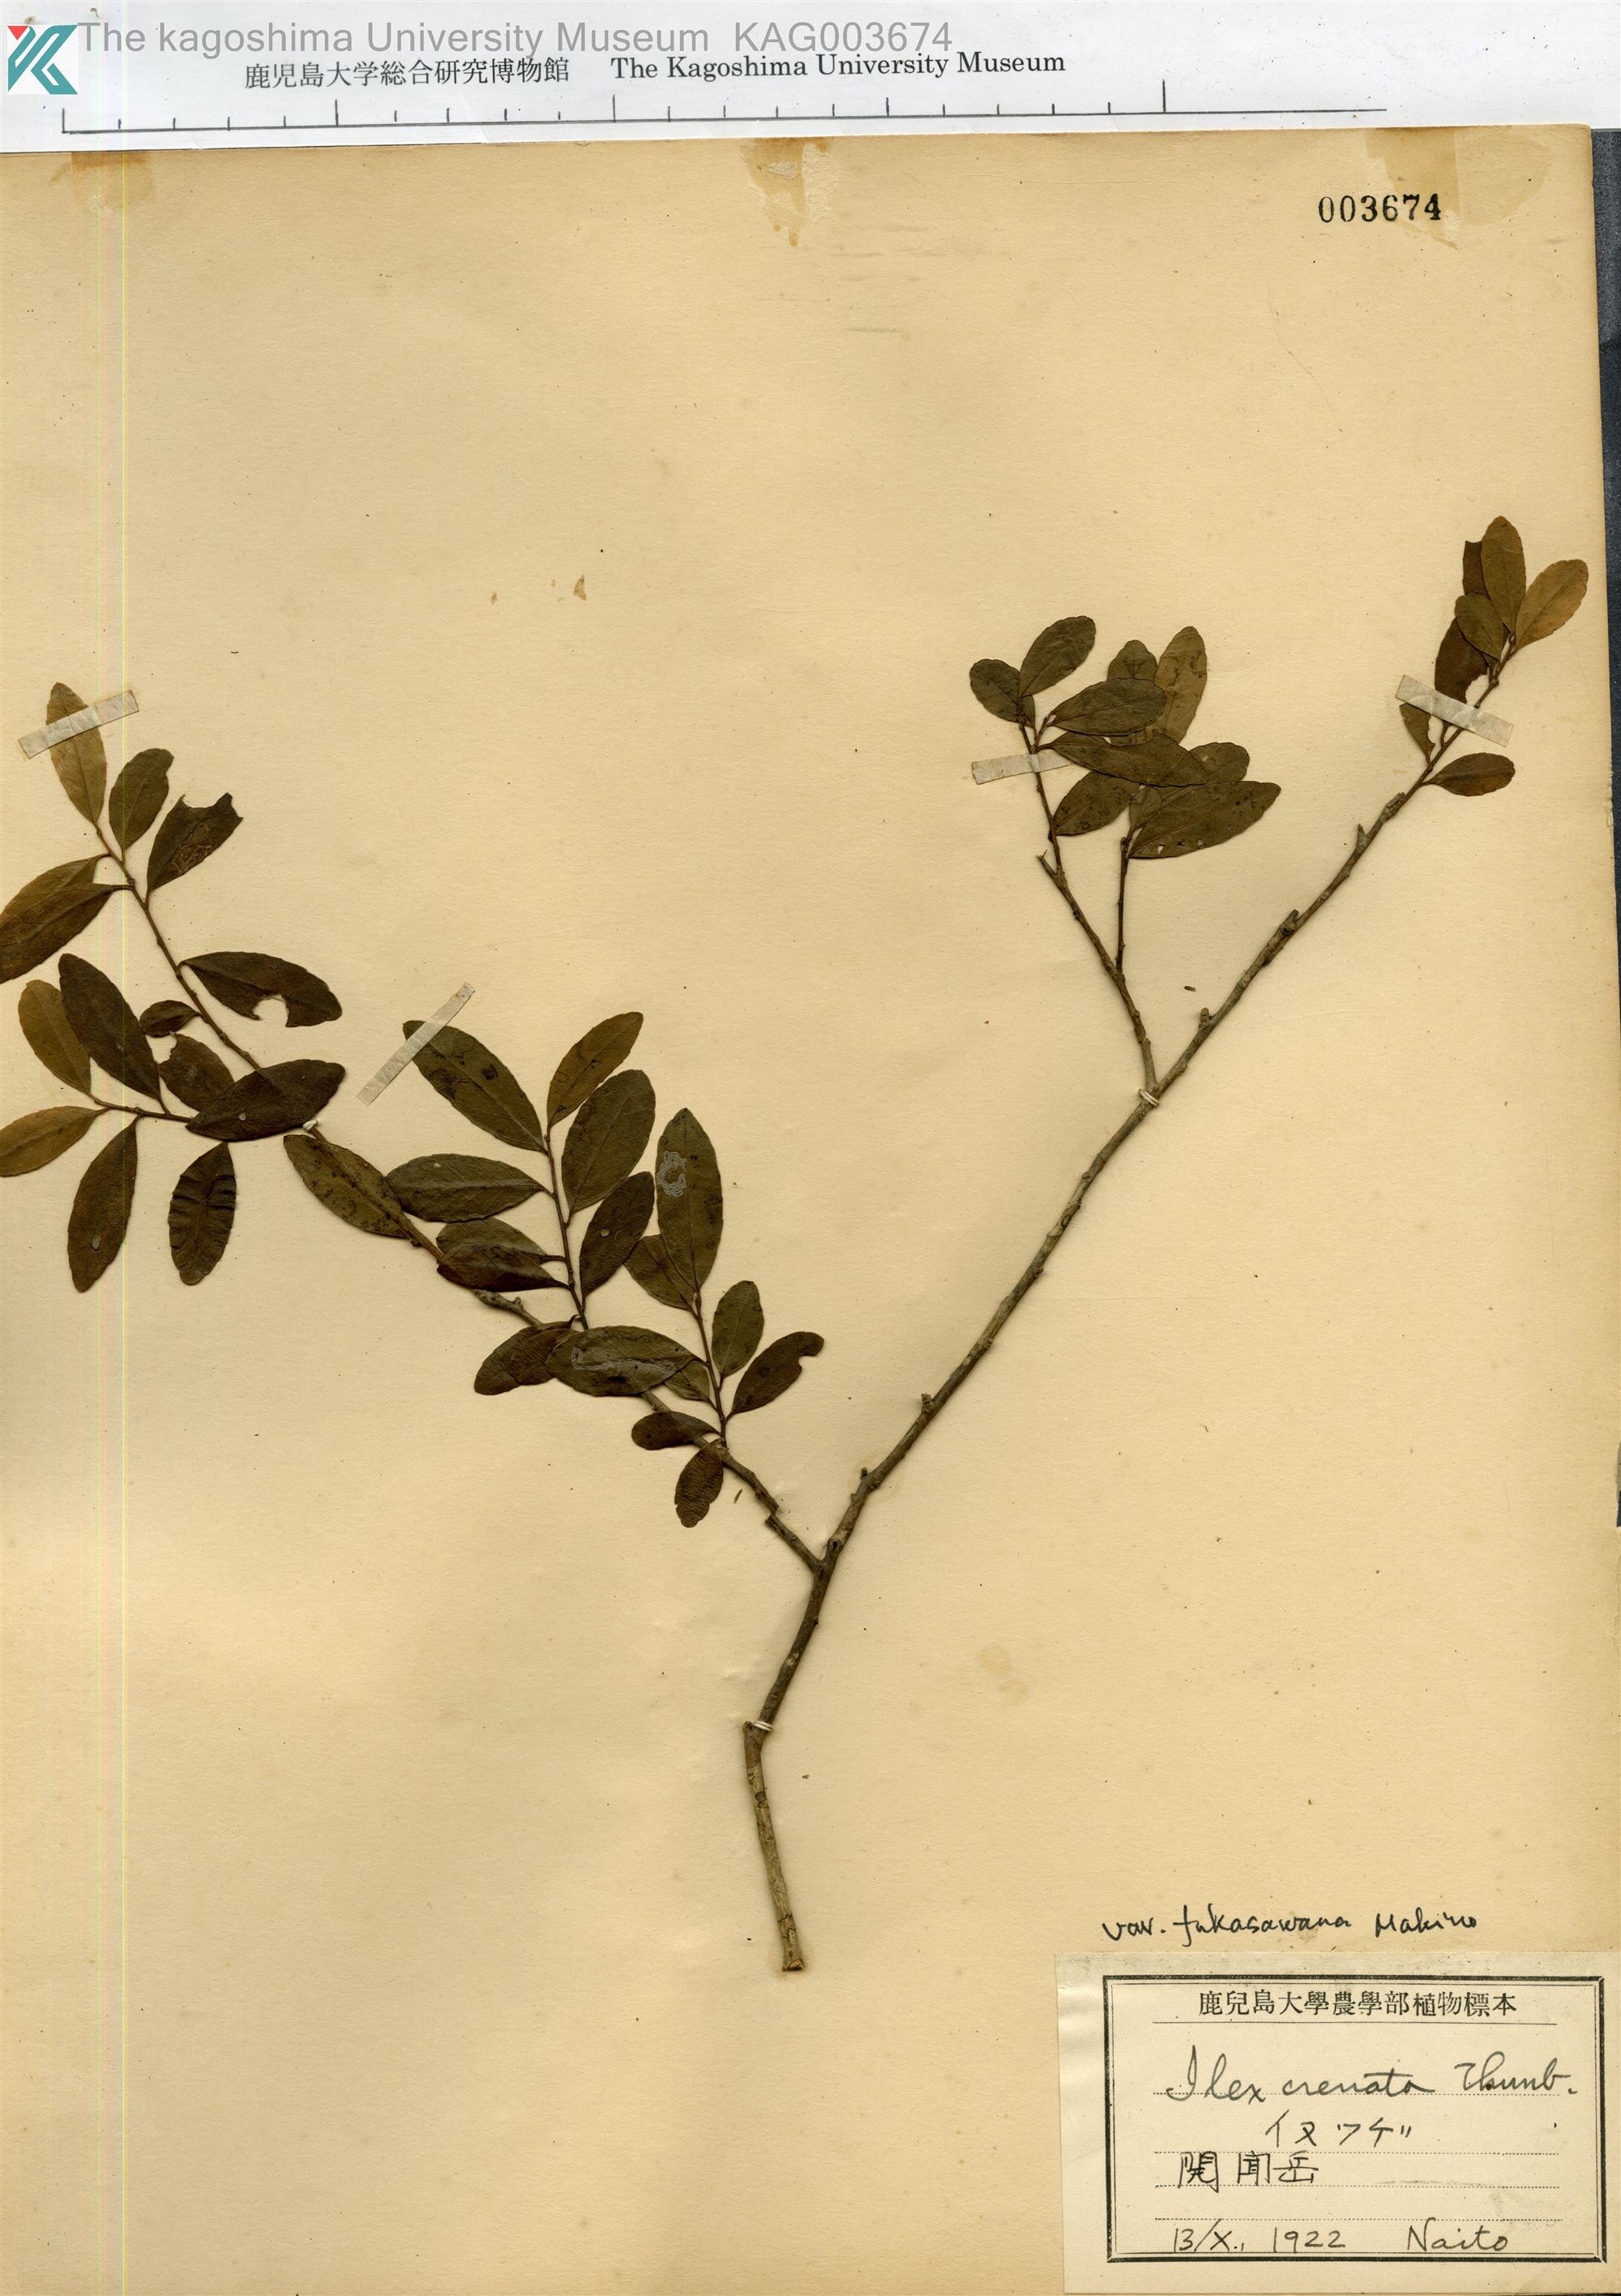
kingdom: Plantae
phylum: Tracheophyta
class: Magnoliopsida
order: Aquifoliales
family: Aquifoliaceae
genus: Ilex
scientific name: Ilex crenata
